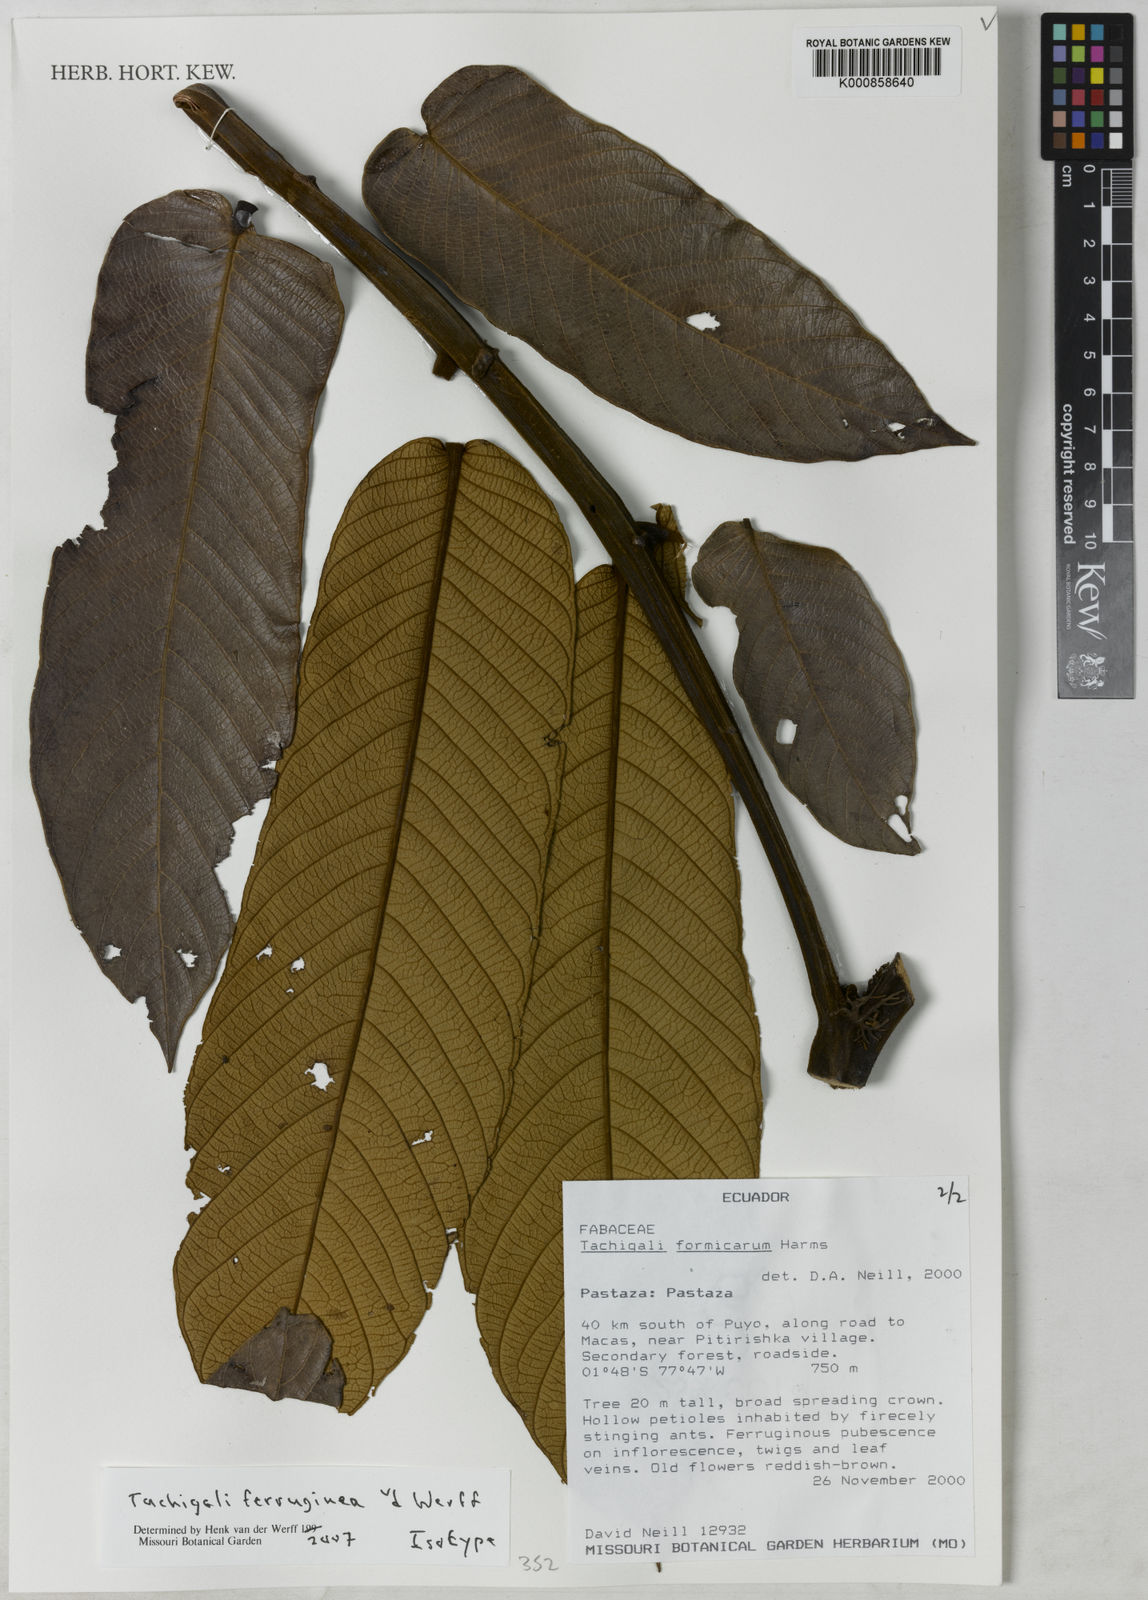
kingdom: Plantae
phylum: Tracheophyta
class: Magnoliopsida
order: Fabales
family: Fabaceae
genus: Tachigali
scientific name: Tachigali ferruginea
